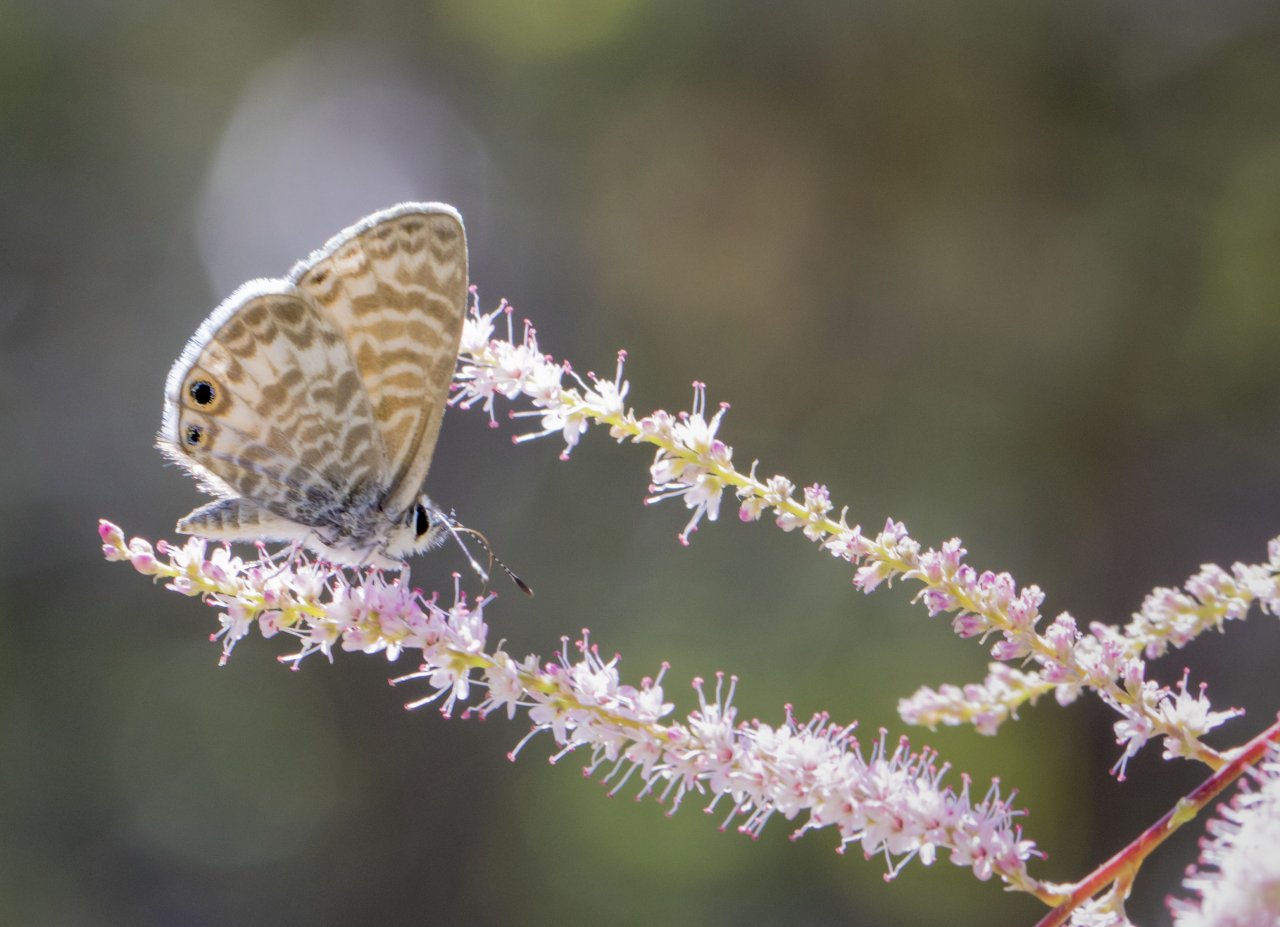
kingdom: Animalia
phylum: Arthropoda
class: Insecta
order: Lepidoptera
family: Lycaenidae
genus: Leptotes
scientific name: Leptotes marina
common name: Marine Blue
